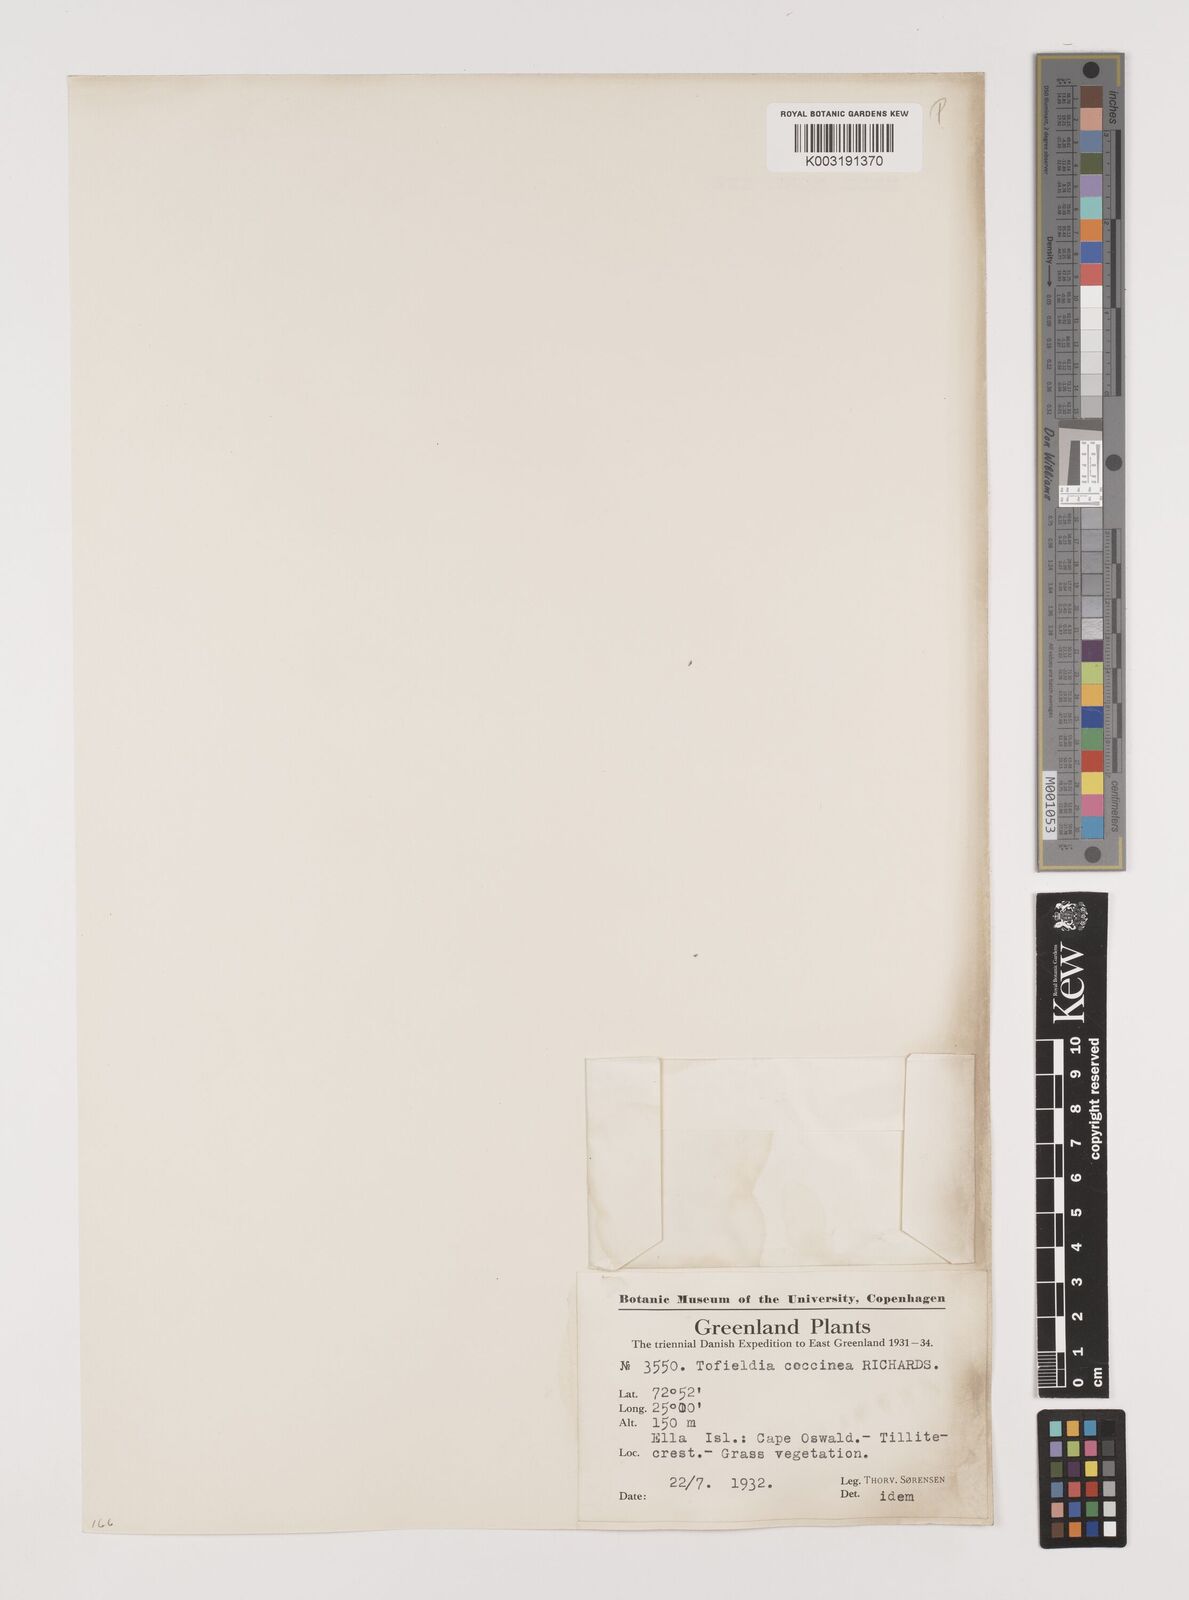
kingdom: Plantae
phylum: Tracheophyta
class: Liliopsida
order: Alismatales
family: Tofieldiaceae
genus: Tofieldia
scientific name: Tofieldia coccinea
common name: Northern false asphodel
